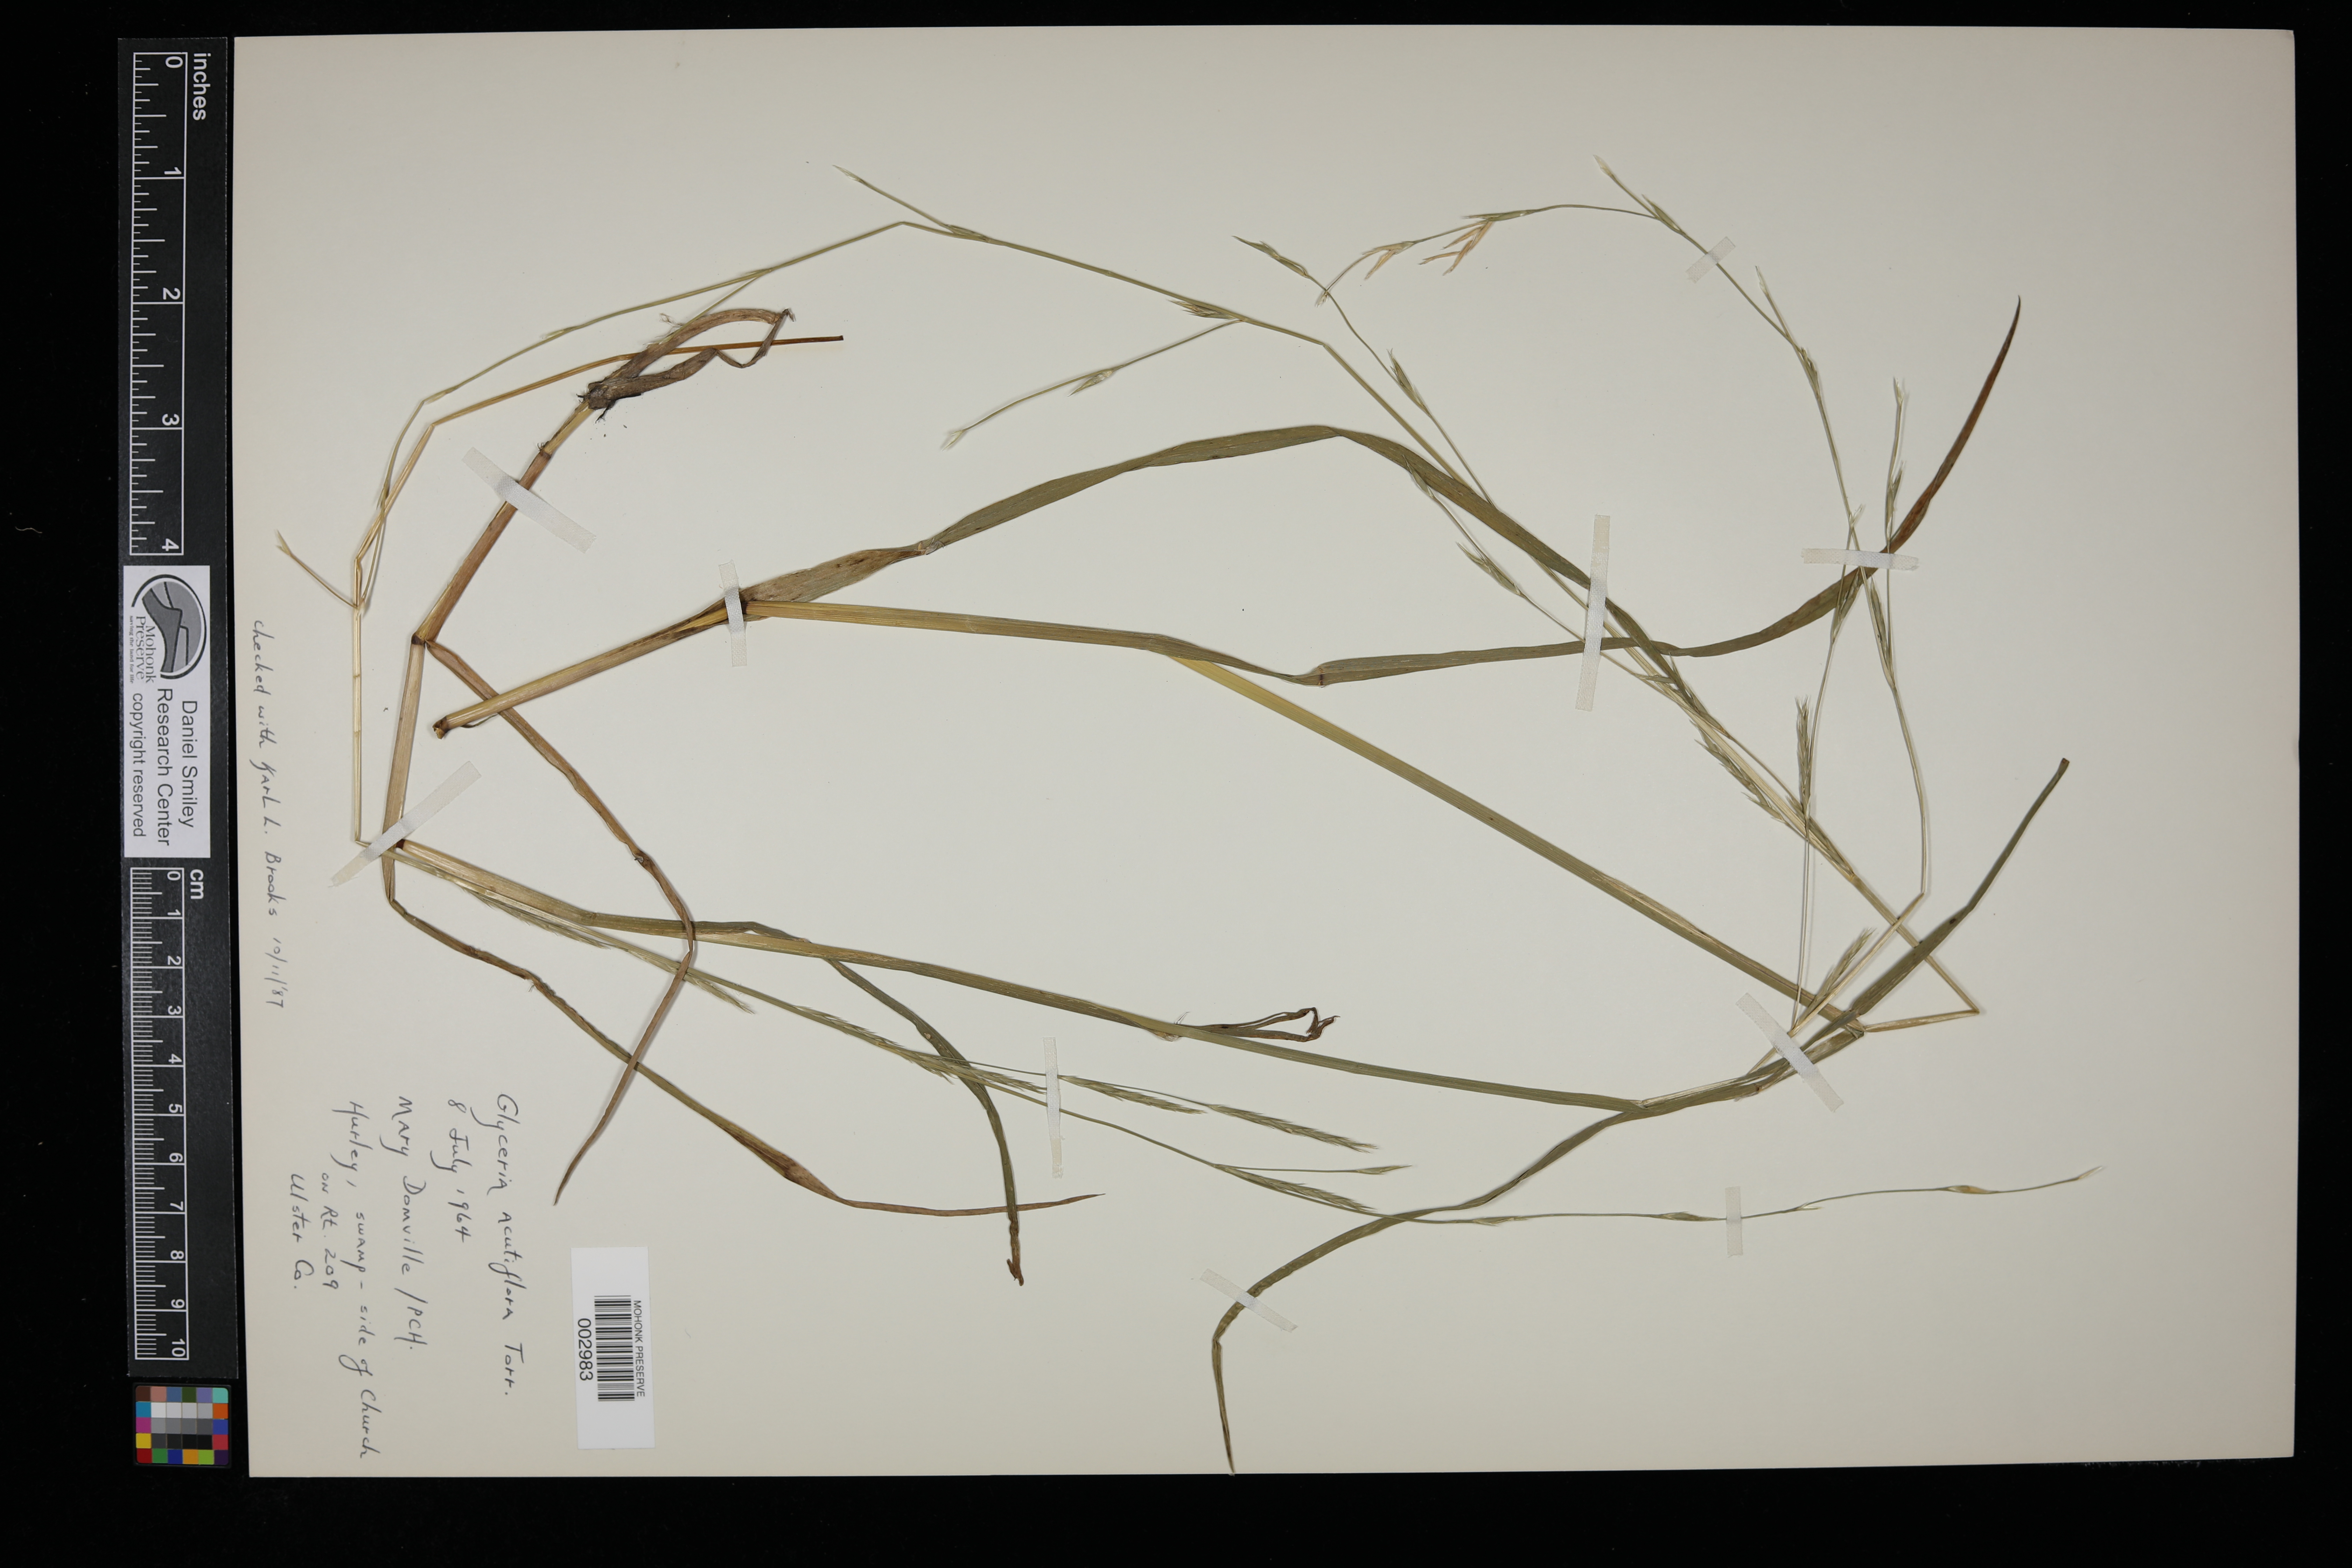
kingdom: Plantae
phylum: Tracheophyta
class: Liliopsida
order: Poales
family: Poaceae
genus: Glyceria
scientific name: Glyceria acutiflora
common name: Sharp-glumed manna-grass
